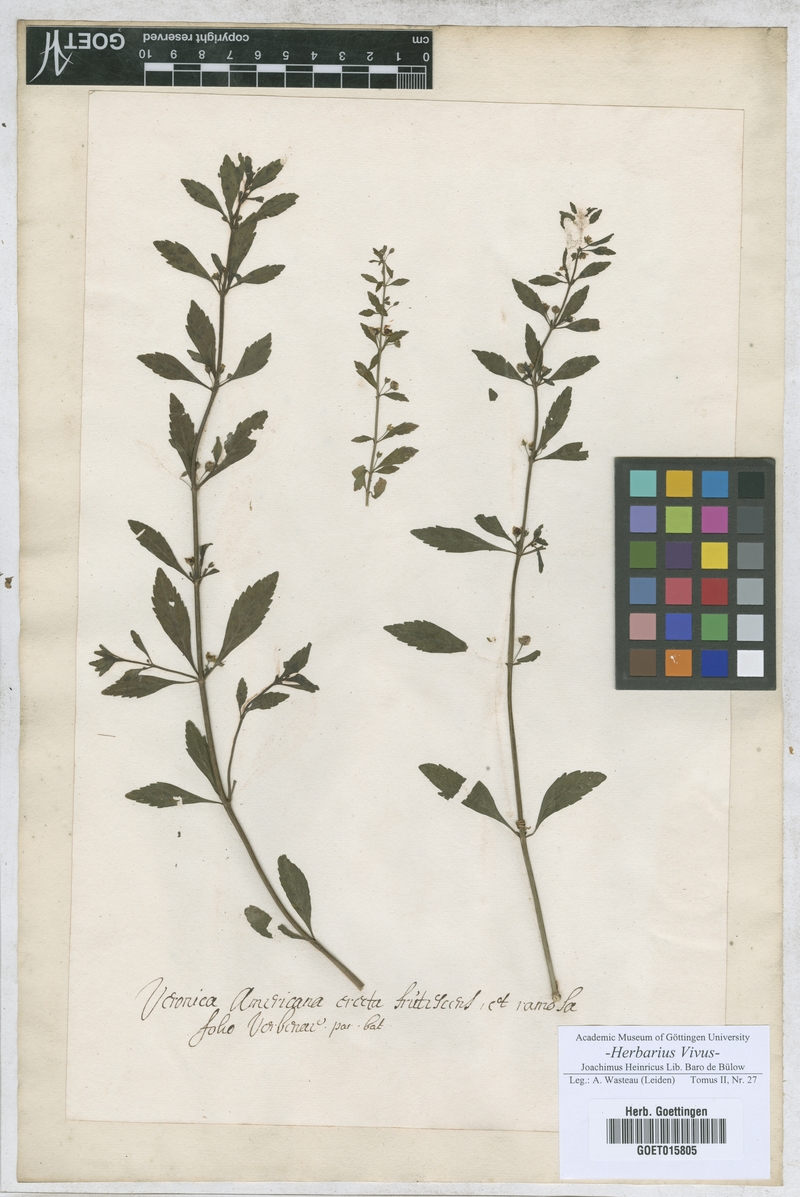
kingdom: Plantae
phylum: Tracheophyta
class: Magnoliopsida
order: Lamiales
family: Plantaginaceae
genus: Veronica
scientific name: Veronica
